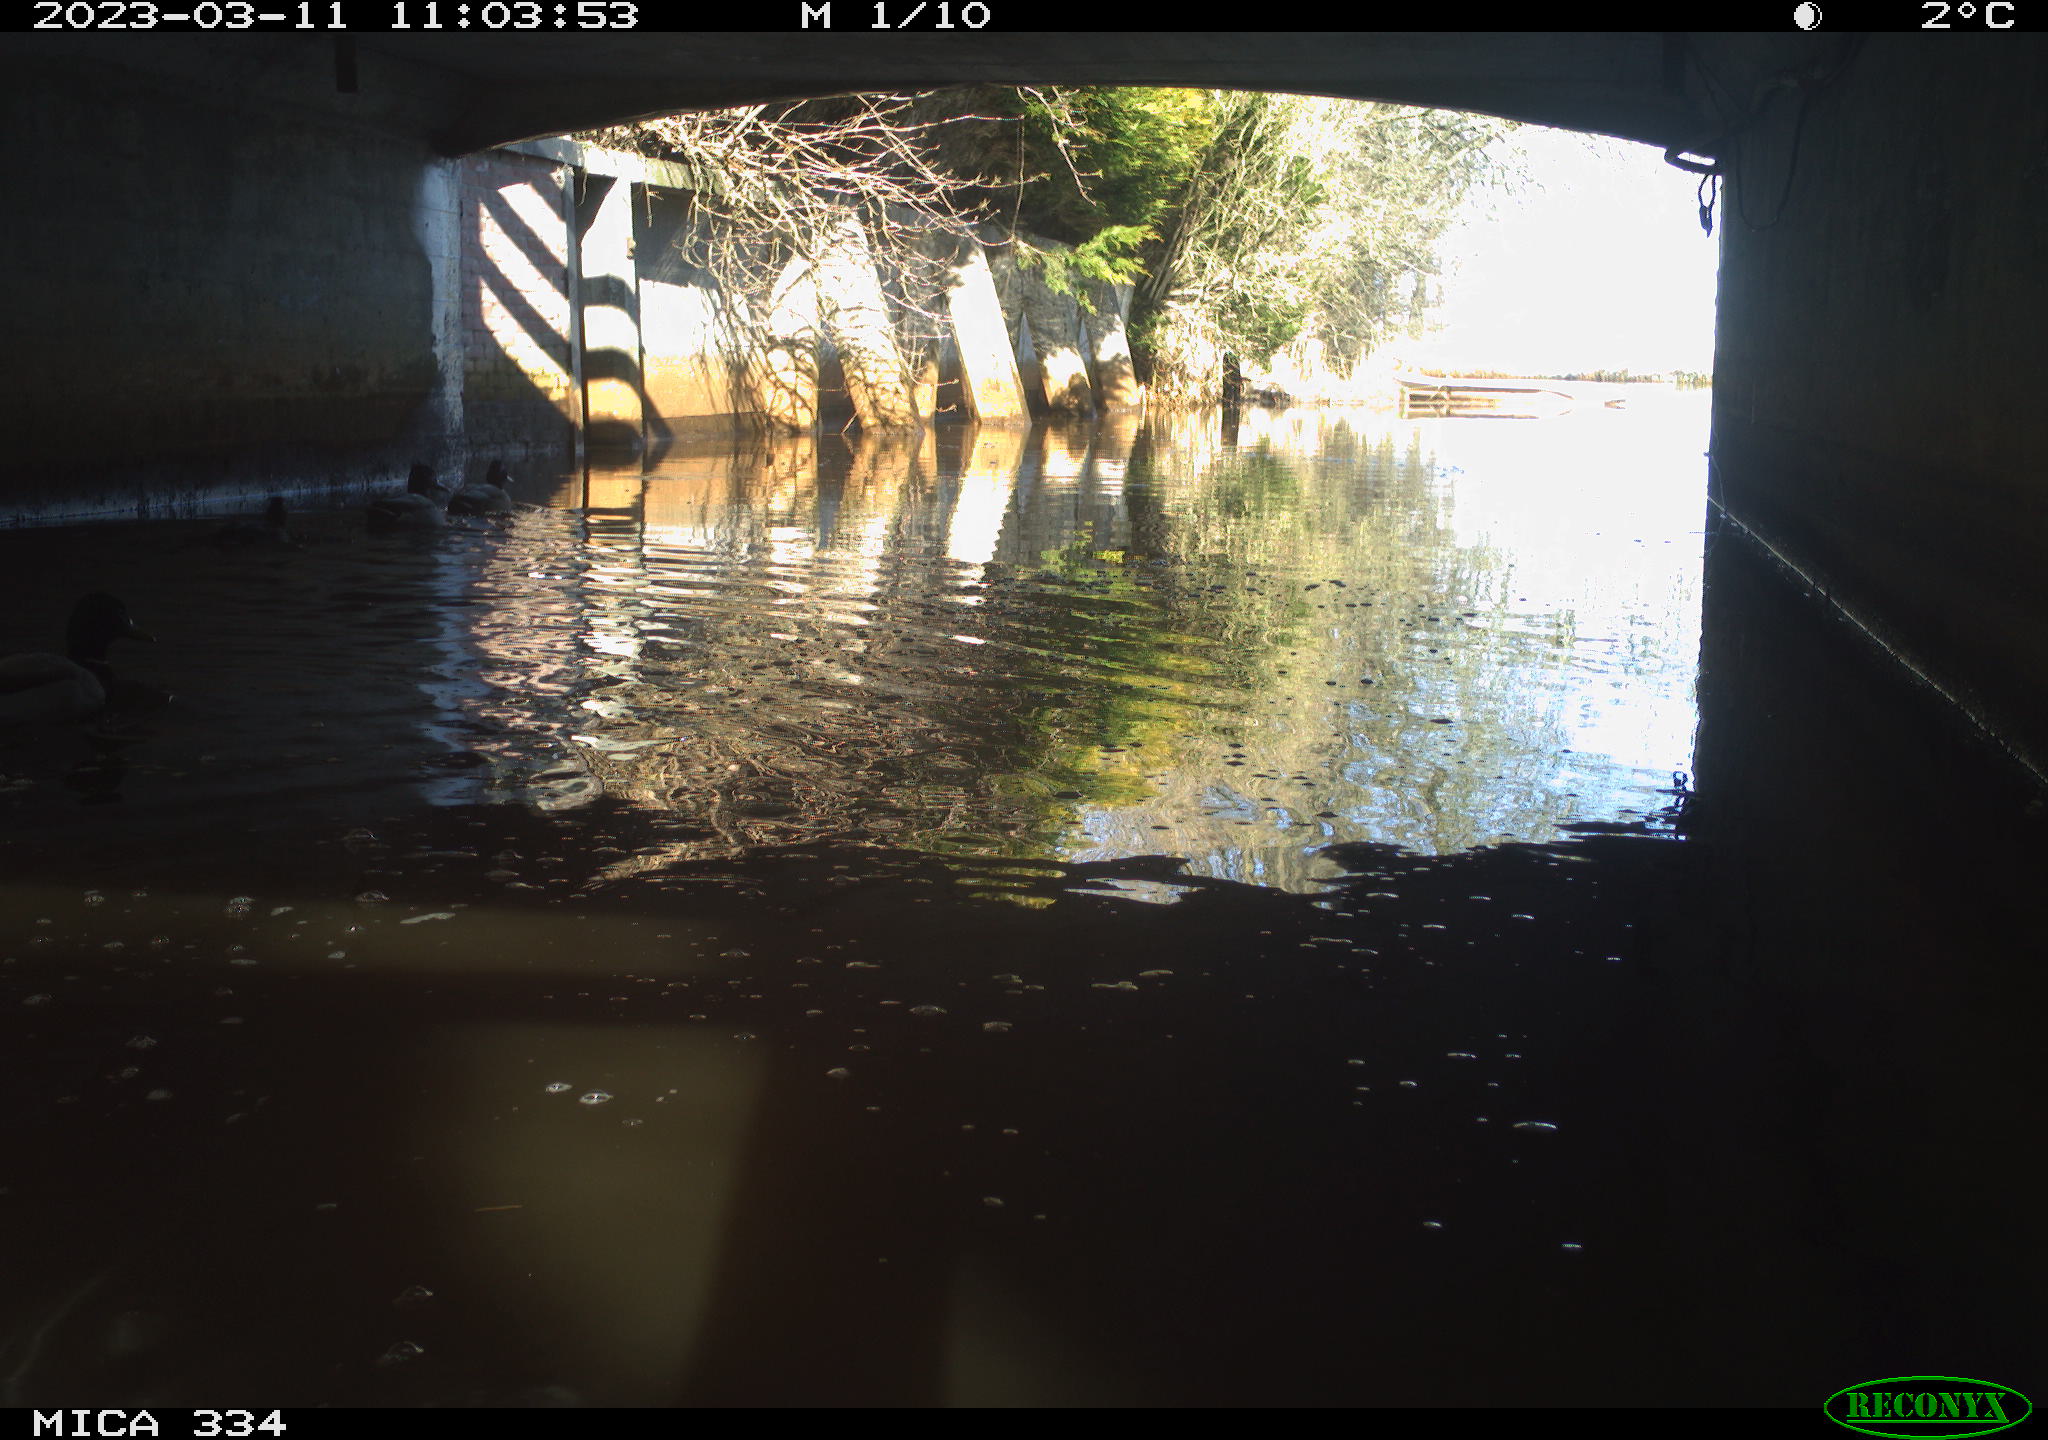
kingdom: Animalia
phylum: Chordata
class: Aves
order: Anseriformes
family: Anatidae
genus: Anas
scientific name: Anas
